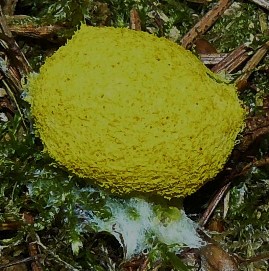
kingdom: Protozoa
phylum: Mycetozoa
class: Myxomycetes
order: Physarales
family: Physaraceae
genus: Fuligo
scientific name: Fuligo septica
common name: gul troldsmør
